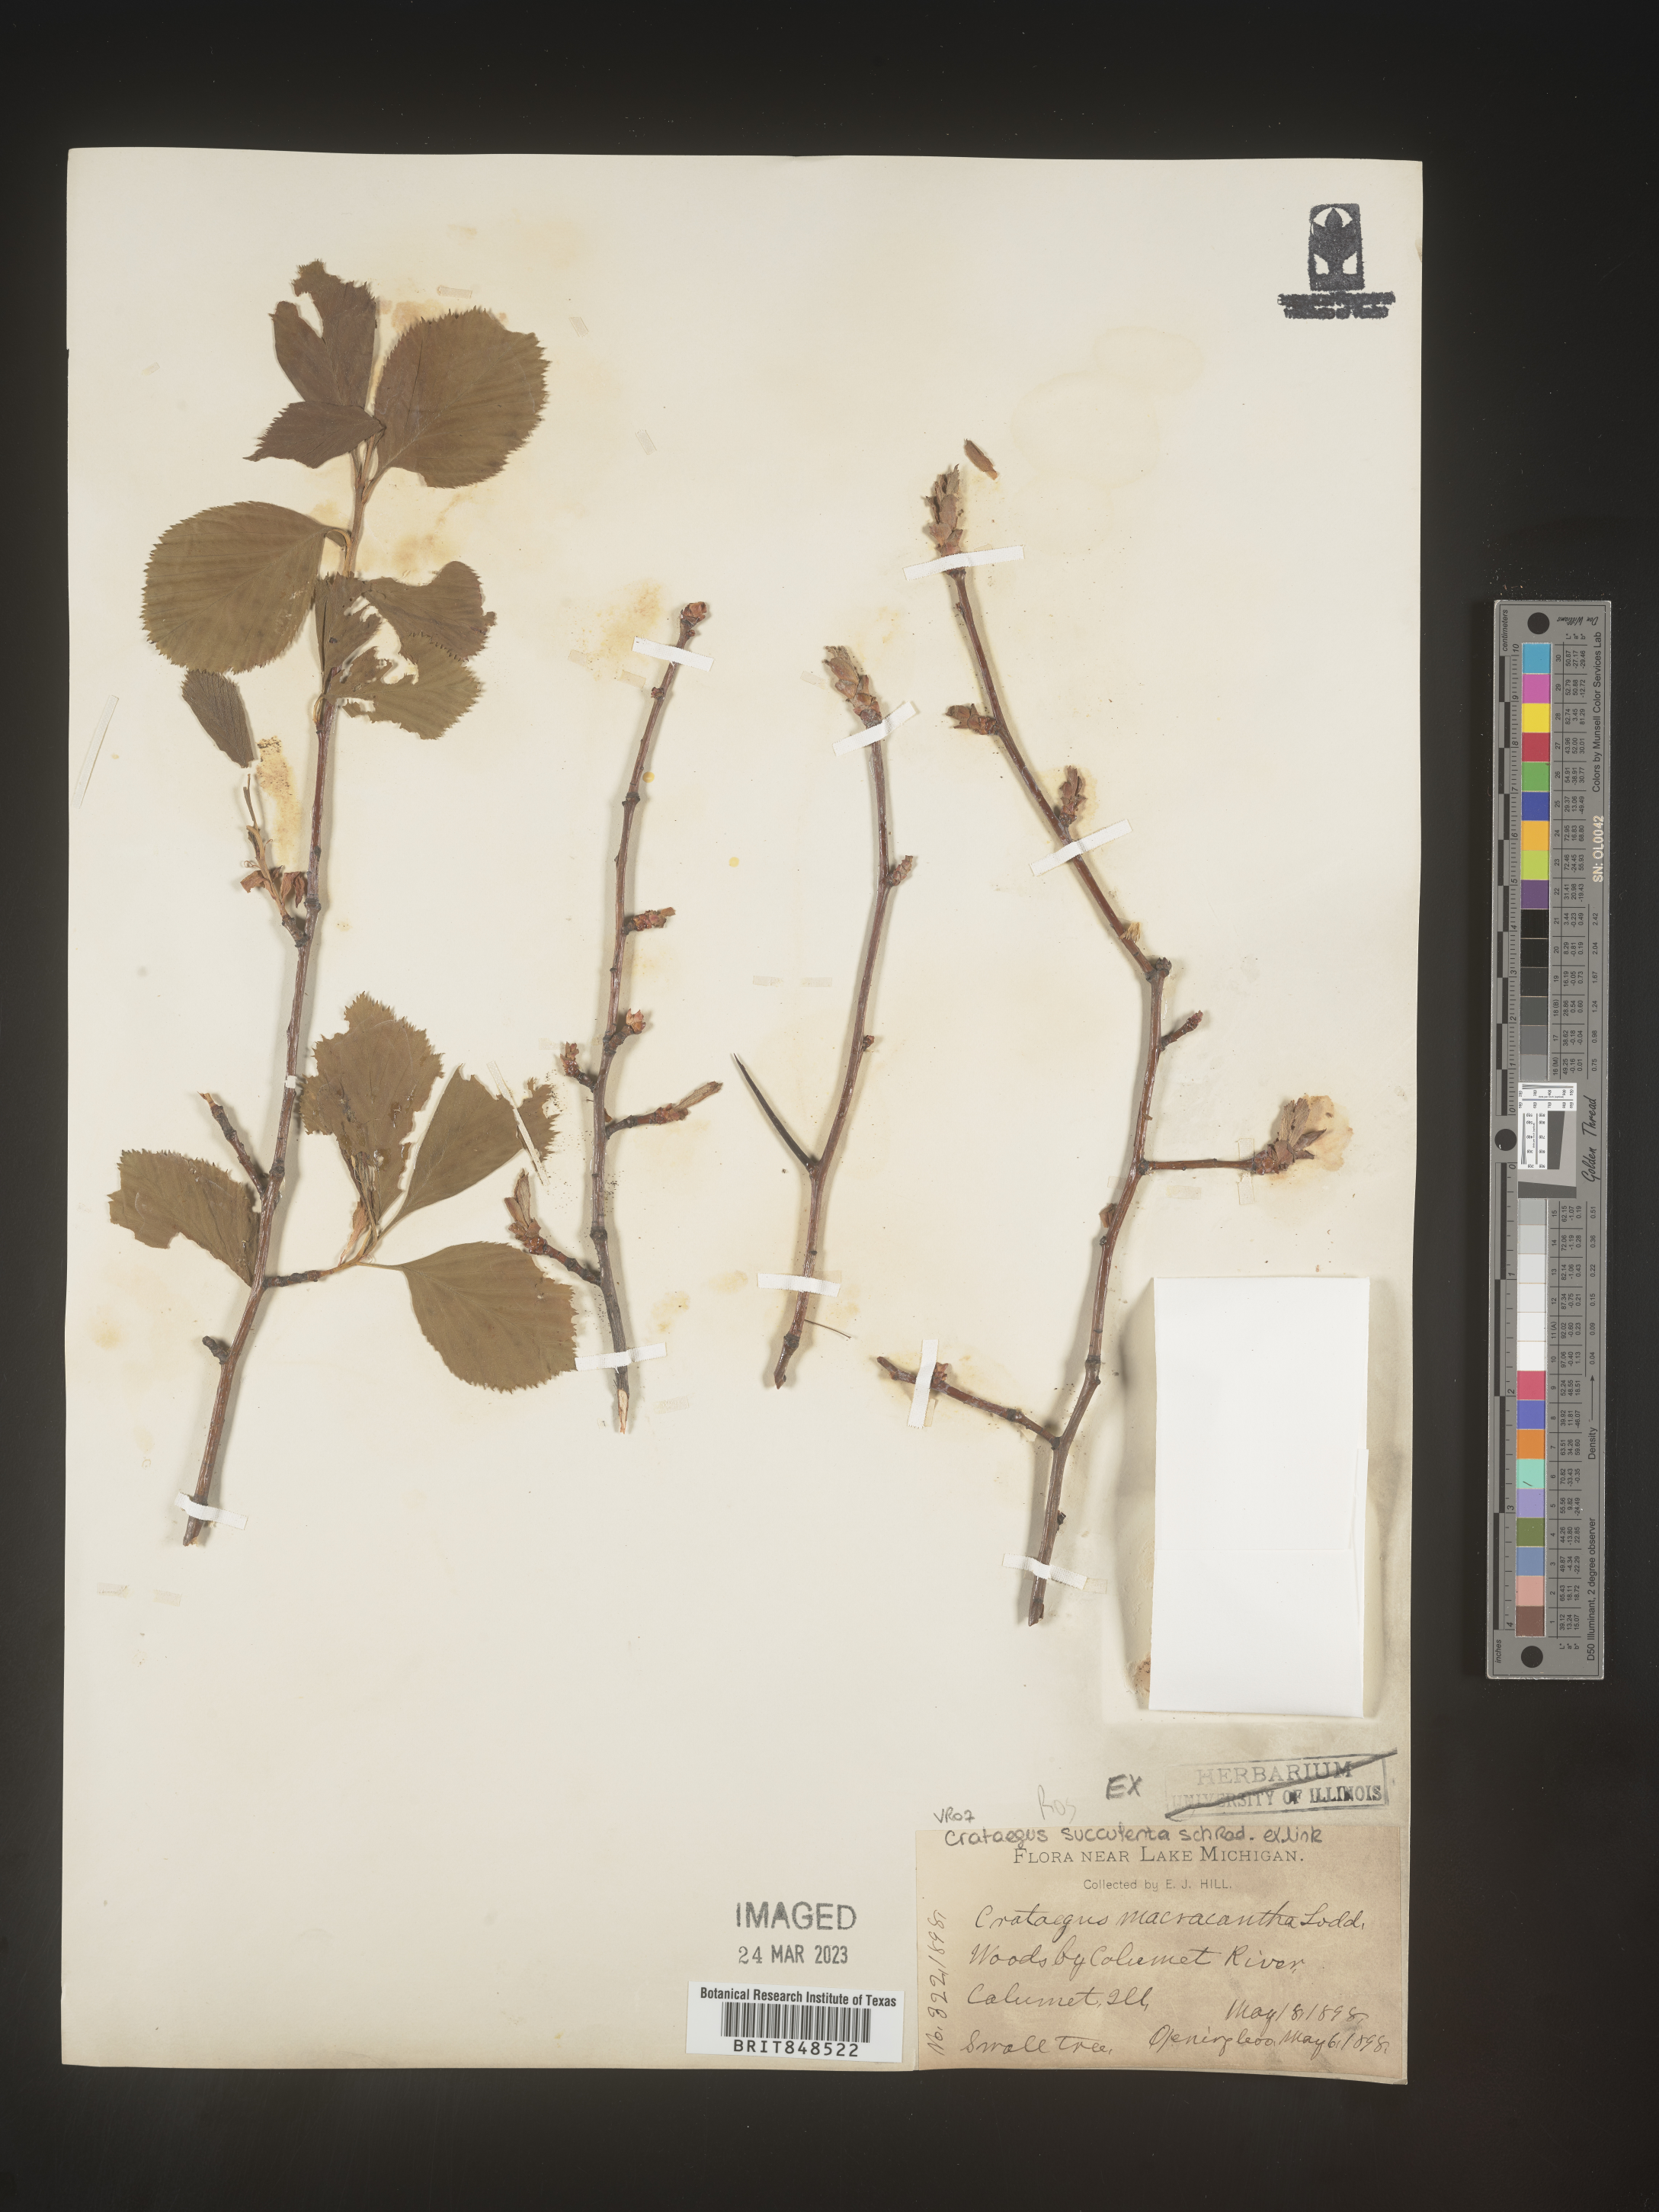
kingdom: Plantae
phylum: Tracheophyta
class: Magnoliopsida
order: Rosales
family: Rosaceae
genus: Crataegus
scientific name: Crataegus succulenta
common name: Fleshy hawthorn
